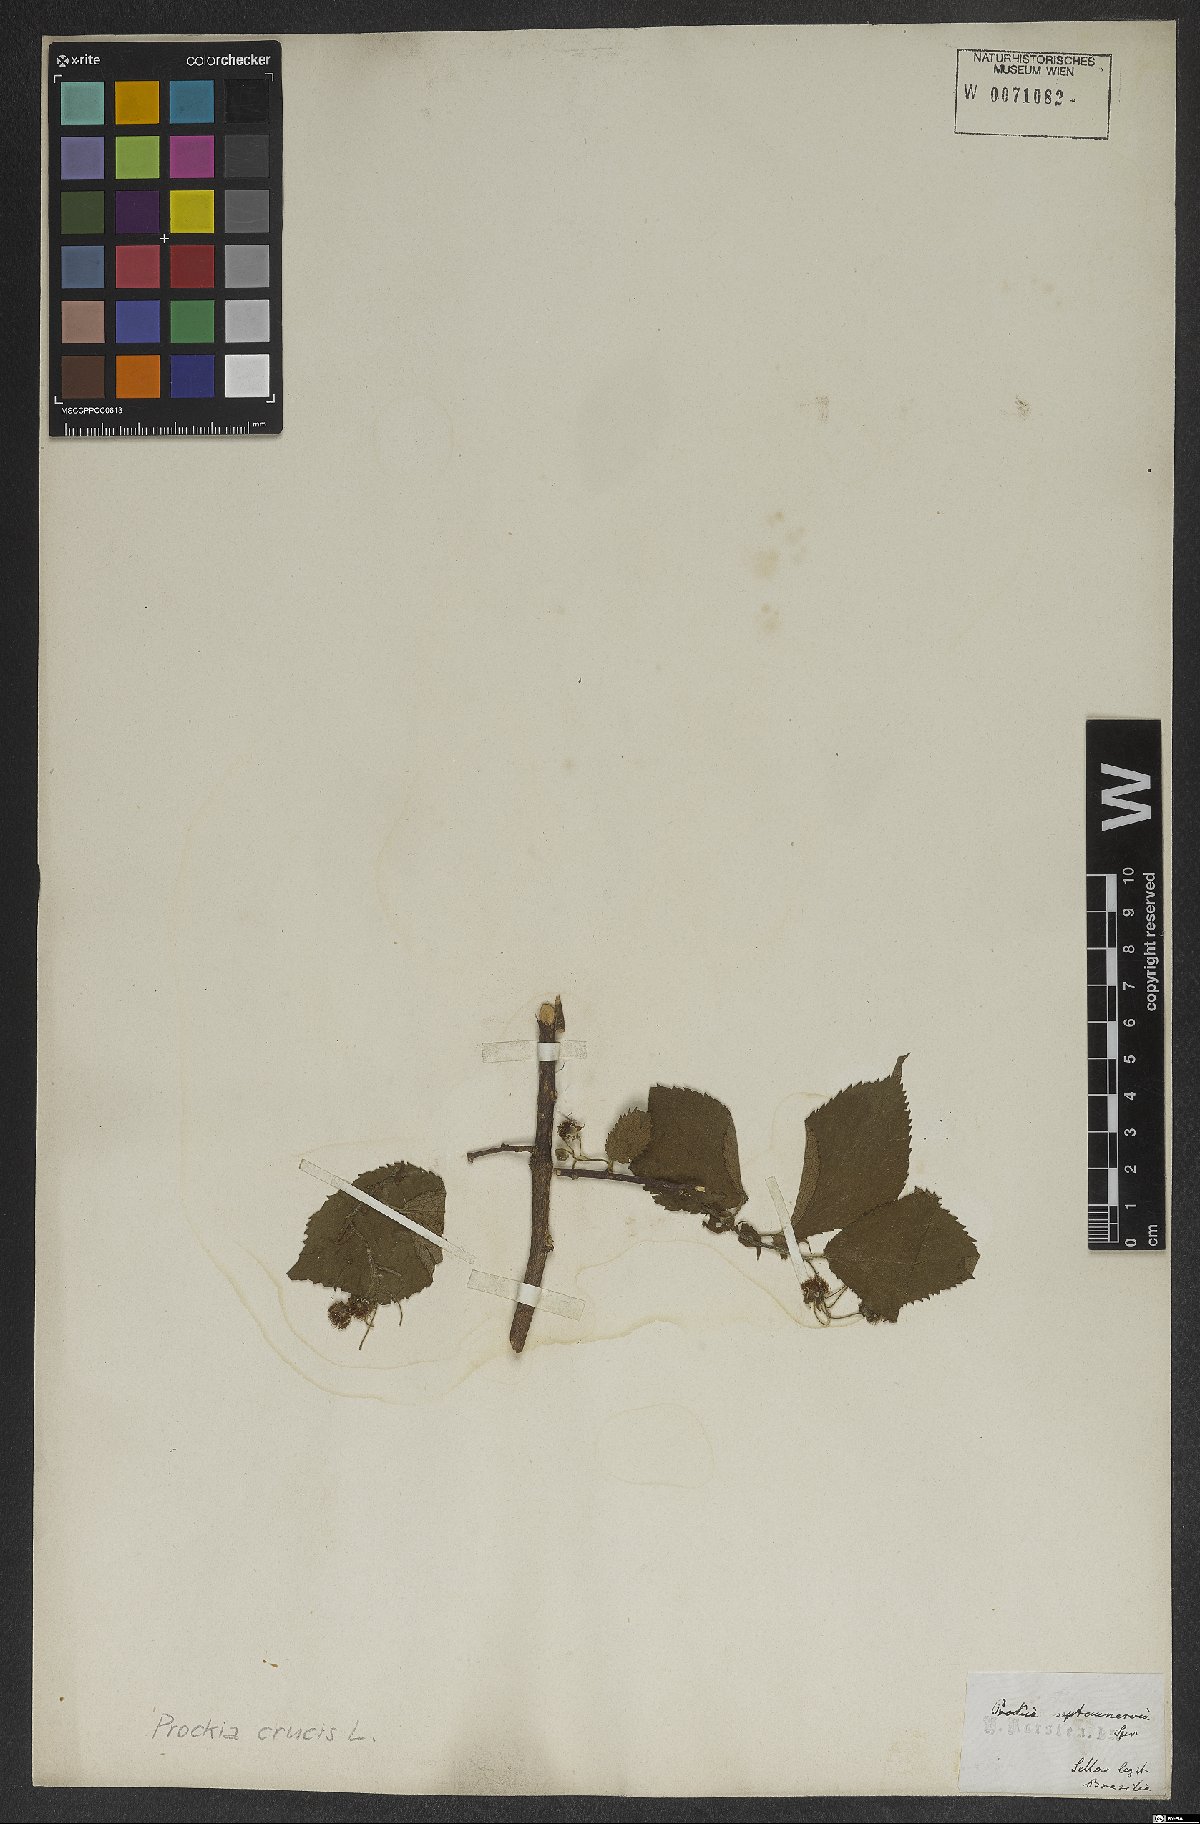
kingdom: Plantae
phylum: Tracheophyta
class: Magnoliopsida
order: Malpighiales
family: Salicaceae
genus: Prockia
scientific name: Prockia crucis
